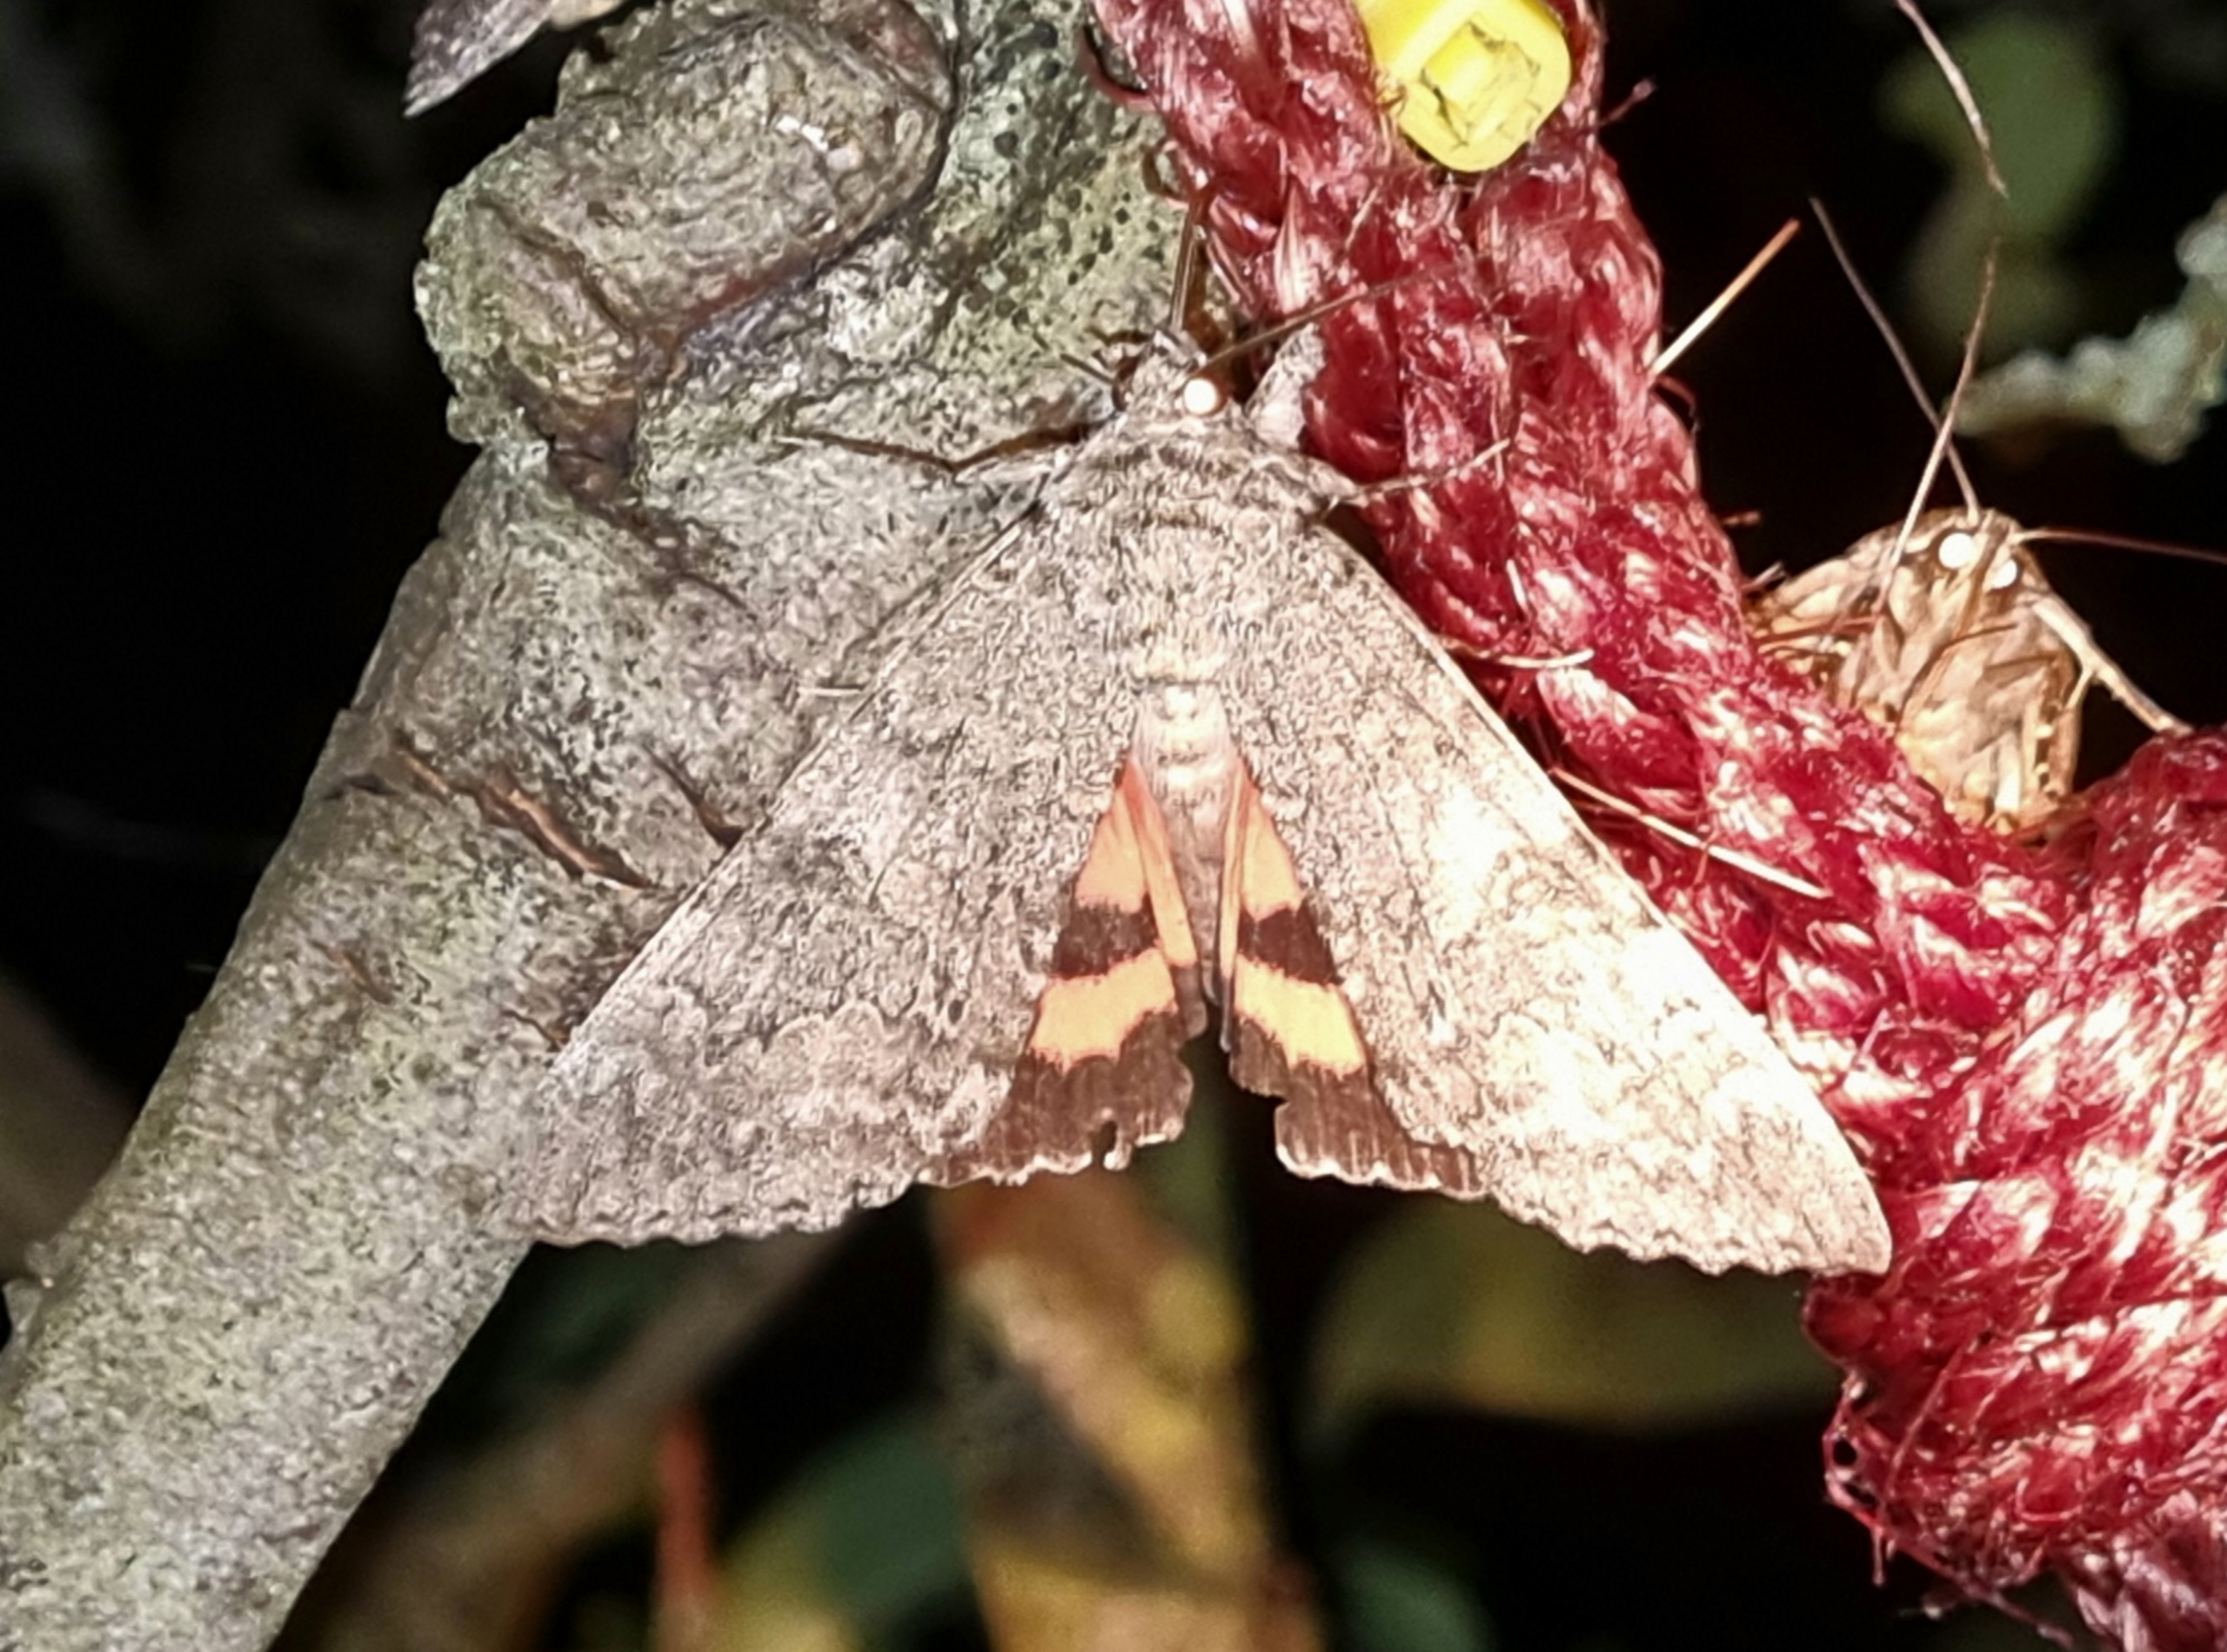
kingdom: Animalia
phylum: Arthropoda
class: Insecta
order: Lepidoptera
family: Erebidae
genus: Catocala
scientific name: Catocala nupta
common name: Rødt ordensbånd
